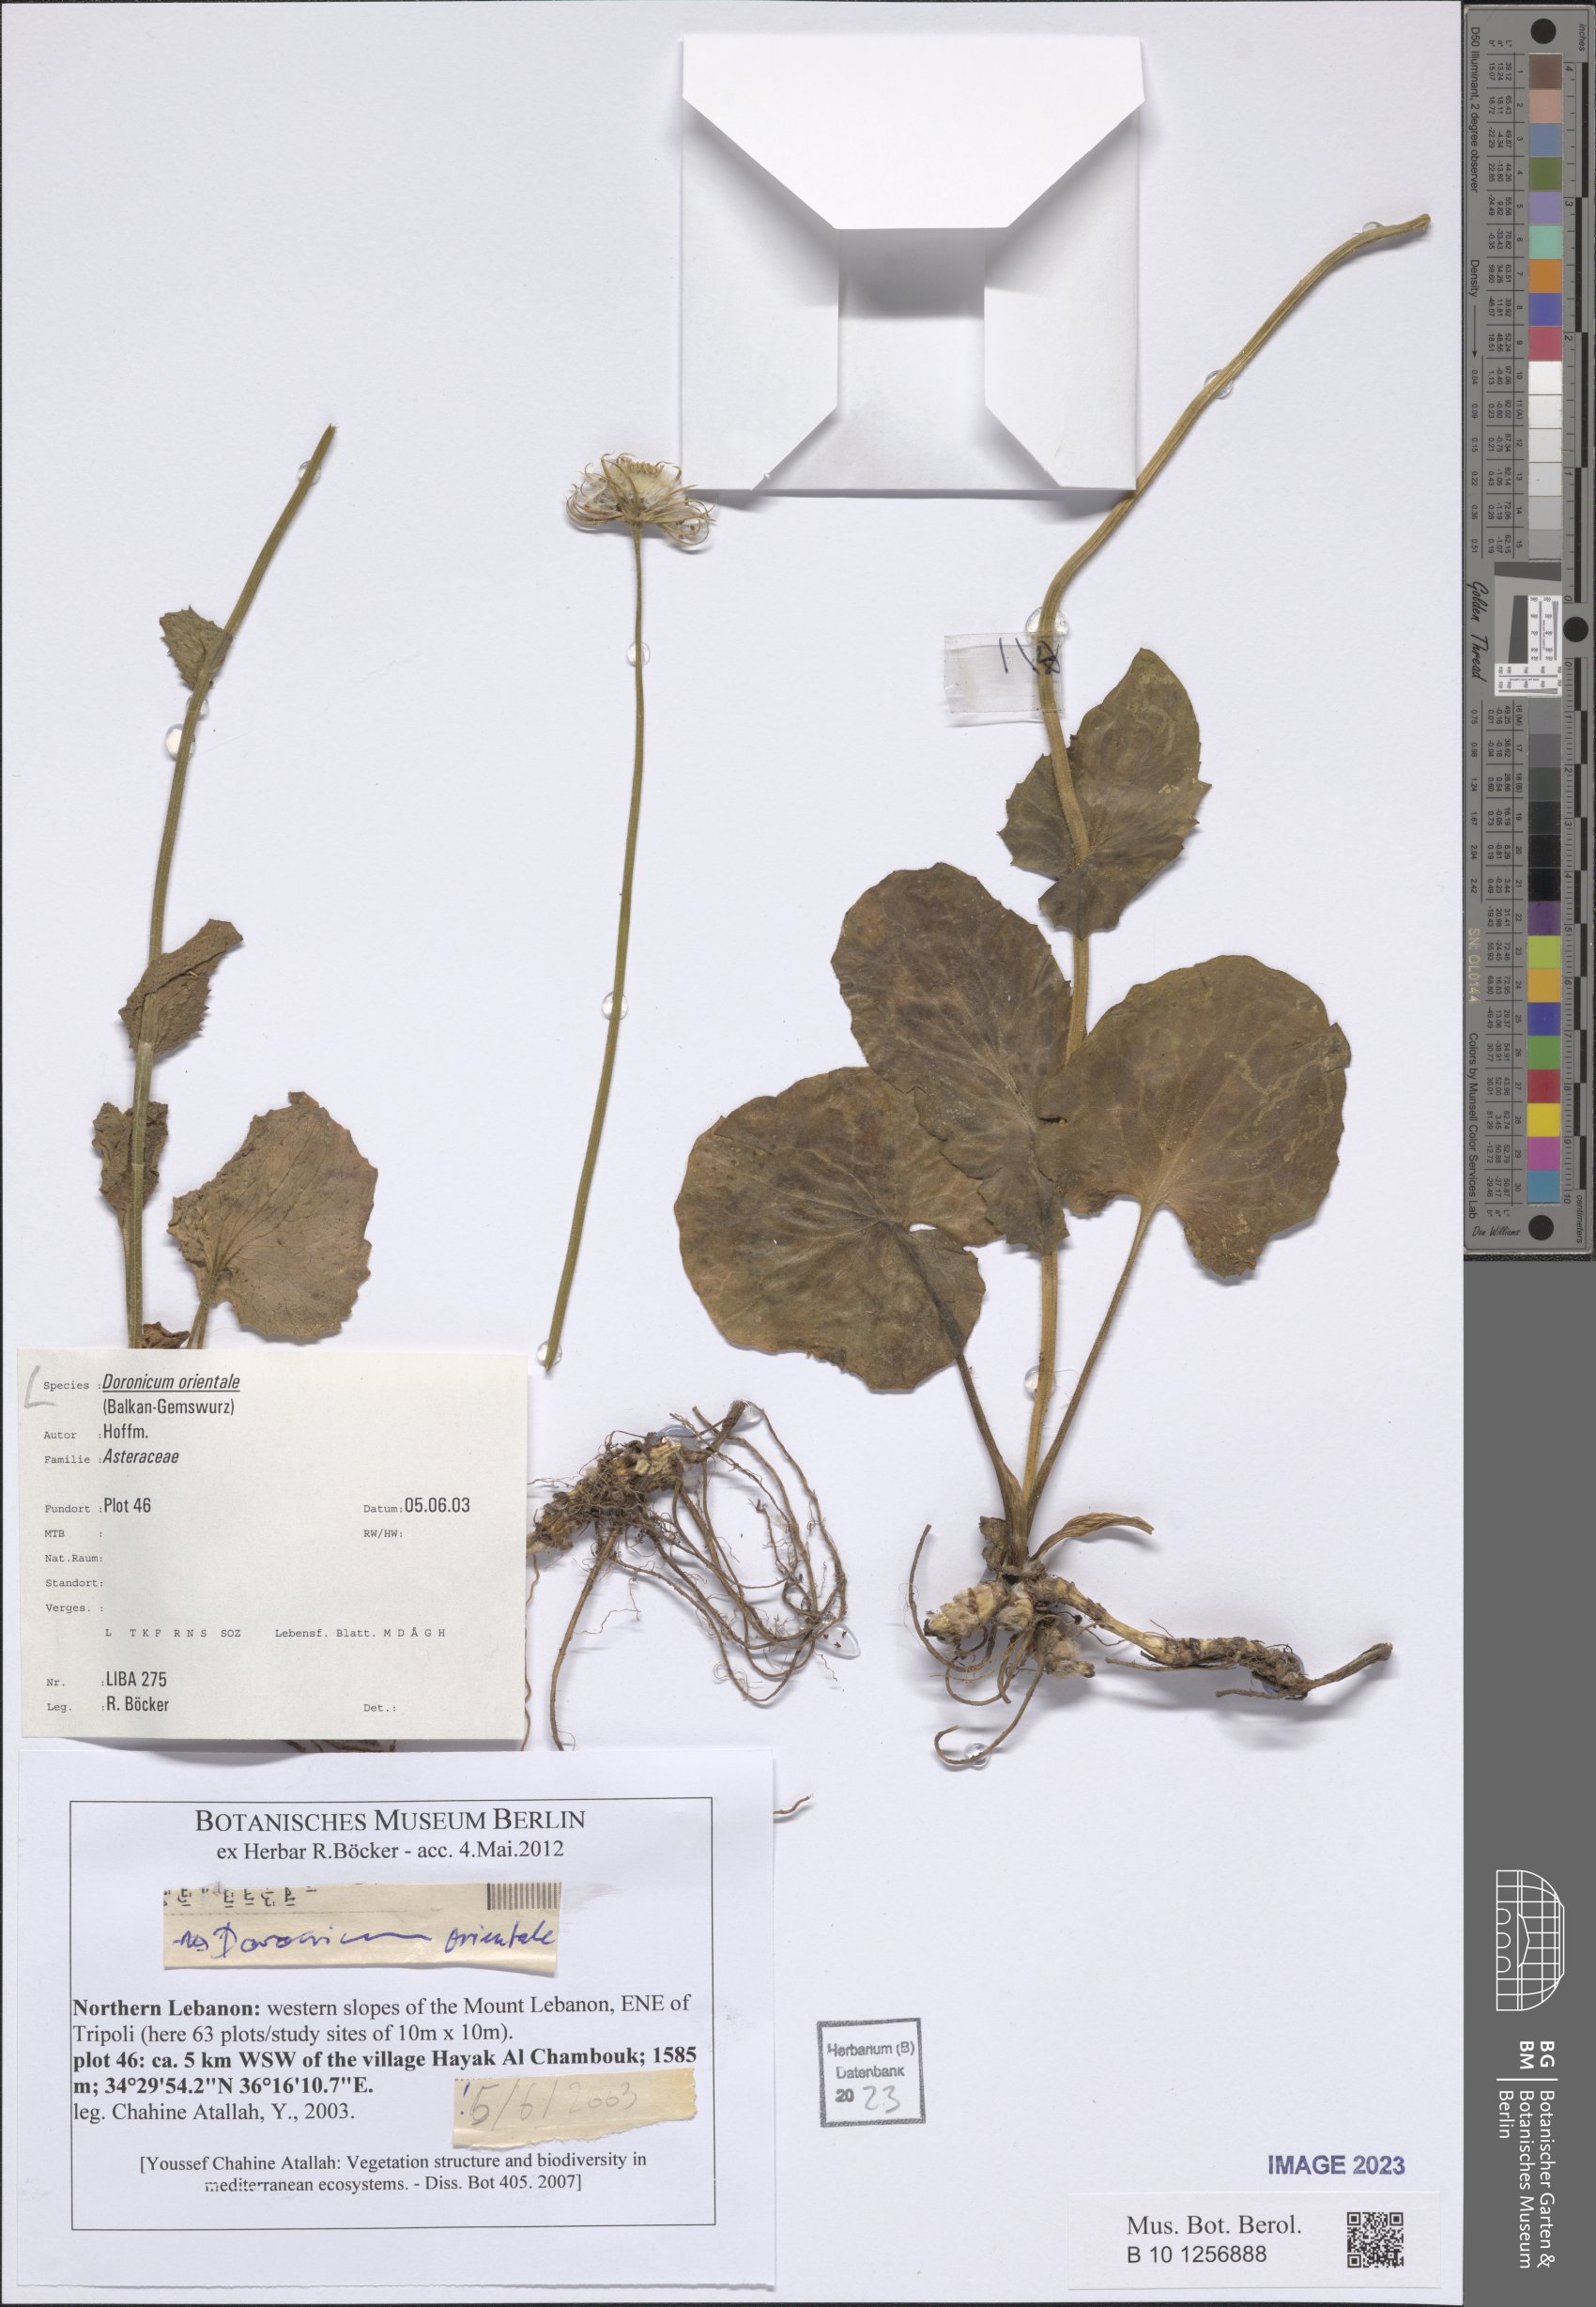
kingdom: Plantae
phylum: Tracheophyta
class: Magnoliopsida
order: Asterales
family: Asteraceae
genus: Doronicum
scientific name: Doronicum orientale
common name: Oriental leopard's-bane
